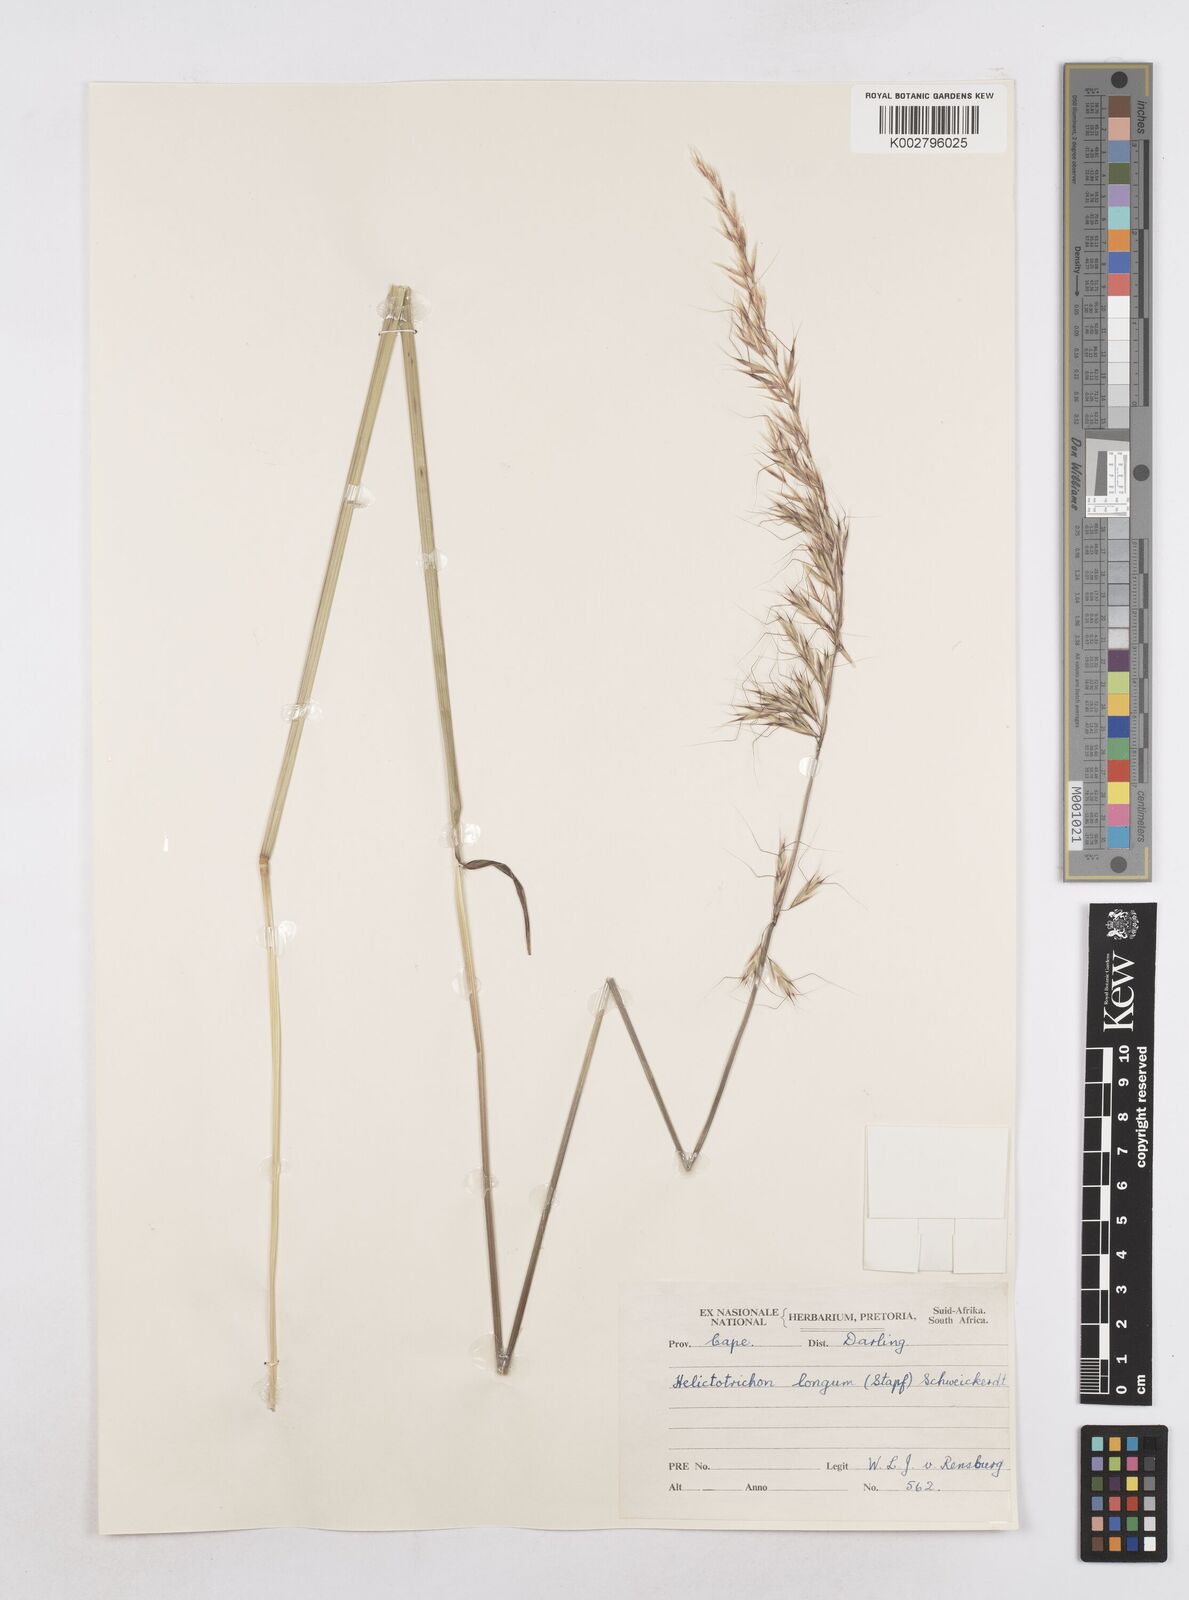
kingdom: Plantae
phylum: Tracheophyta
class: Liliopsida
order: Poales
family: Poaceae
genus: Trisetopsis
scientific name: Trisetopsis longa
